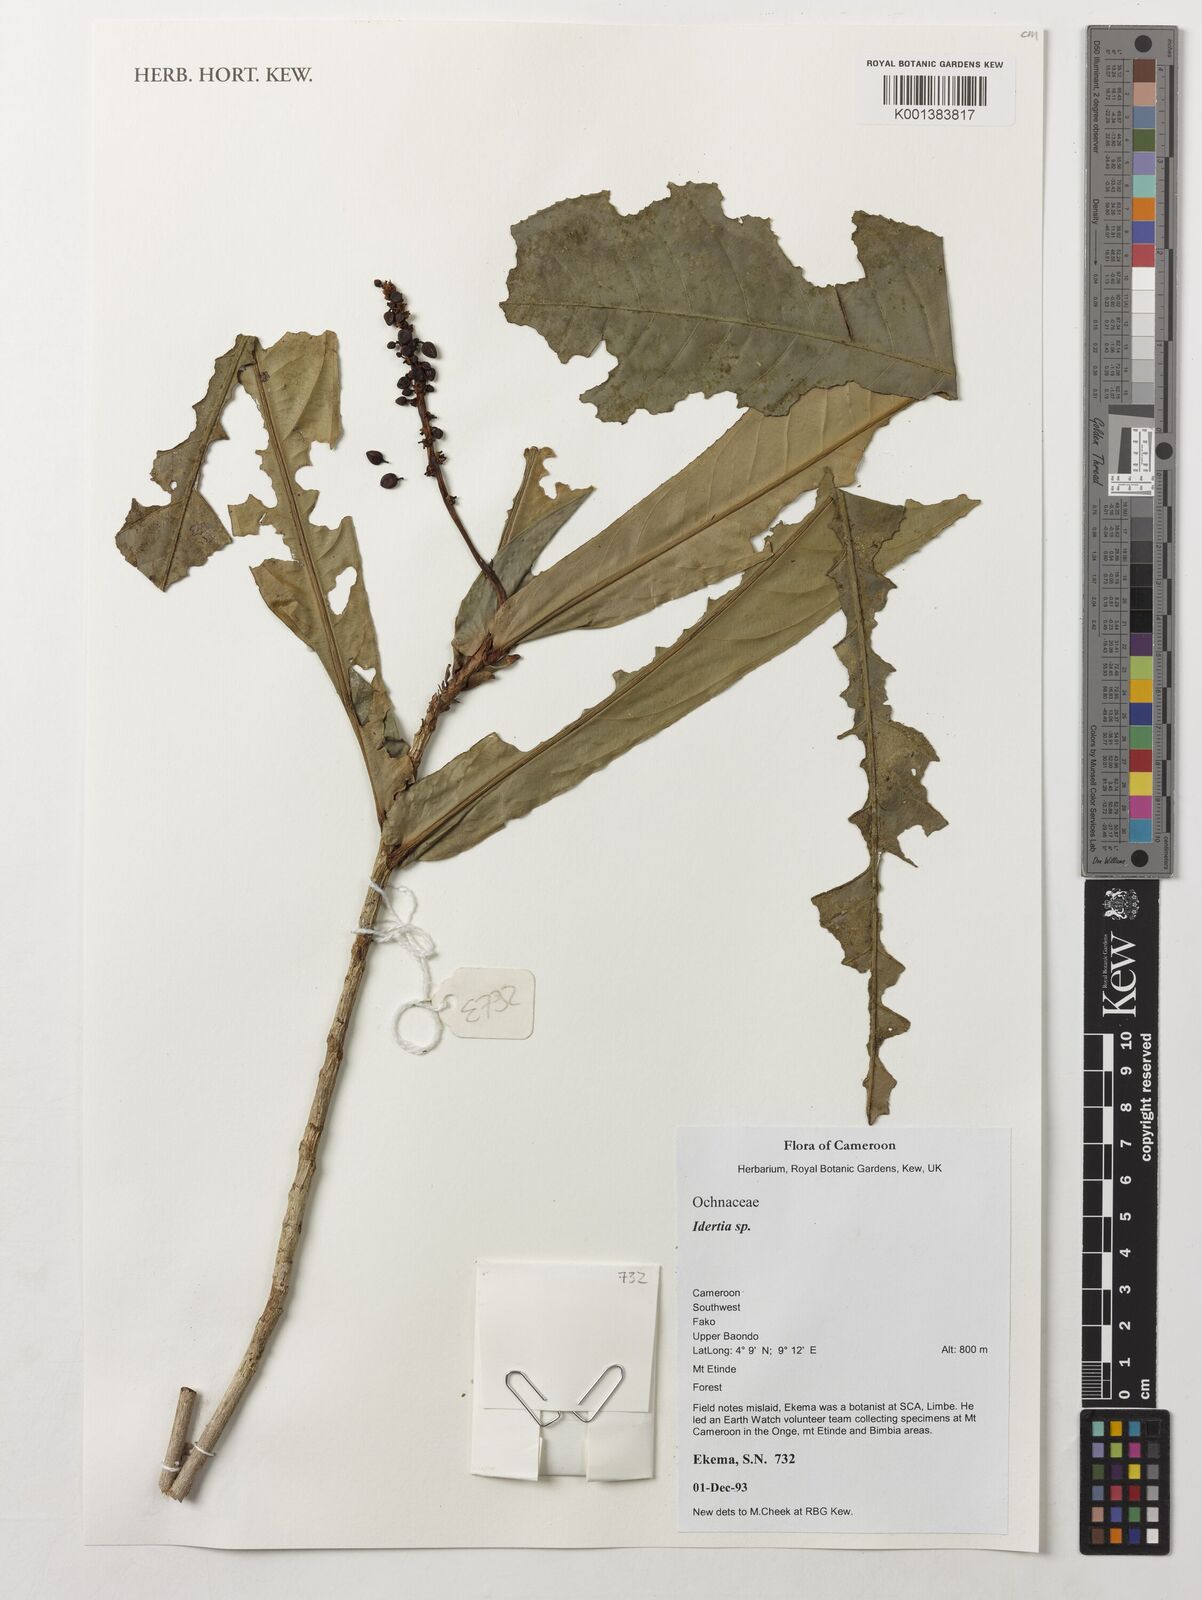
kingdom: Plantae
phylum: Tracheophyta
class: Magnoliopsida
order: Malpighiales
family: Ochnaceae
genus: Idertia
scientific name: Idertia
